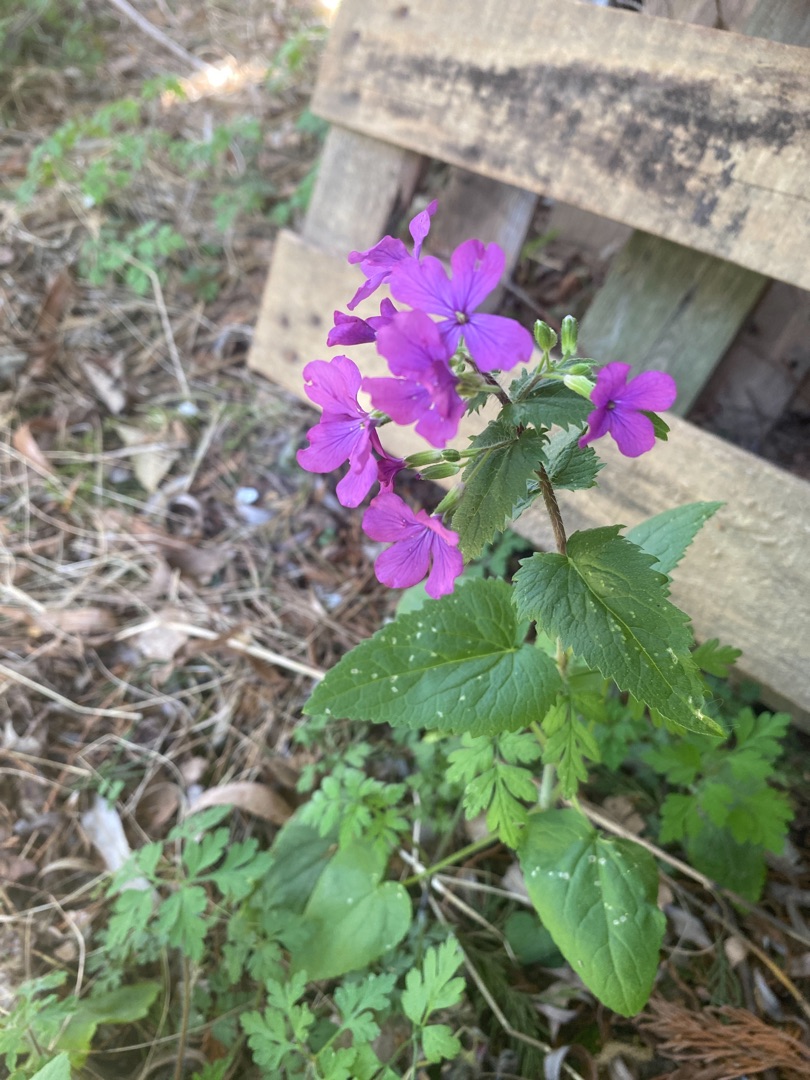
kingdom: Plantae
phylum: Tracheophyta
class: Magnoliopsida
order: Brassicales
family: Brassicaceae
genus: Lunaria
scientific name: Lunaria annua
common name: Judaspenge
